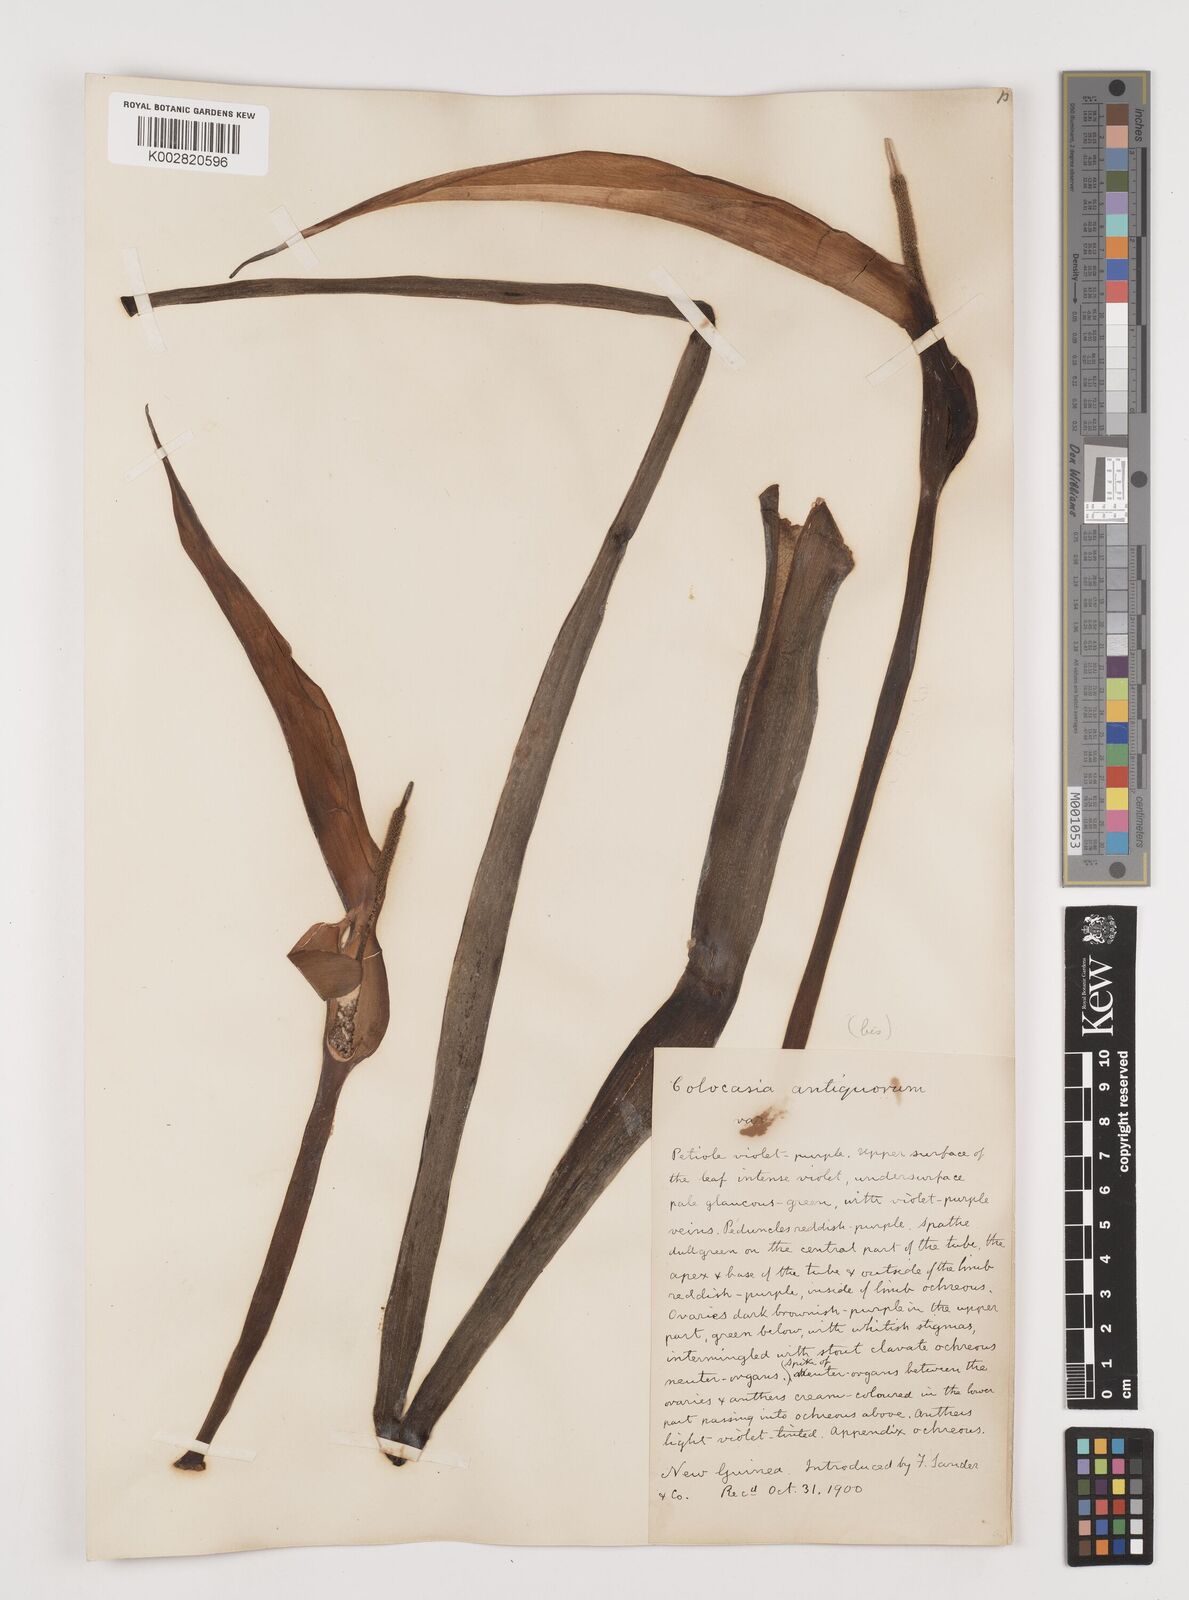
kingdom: Plantae
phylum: Tracheophyta
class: Liliopsida
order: Alismatales
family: Araceae
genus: Colocasia
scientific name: Colocasia esculenta
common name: Taro
